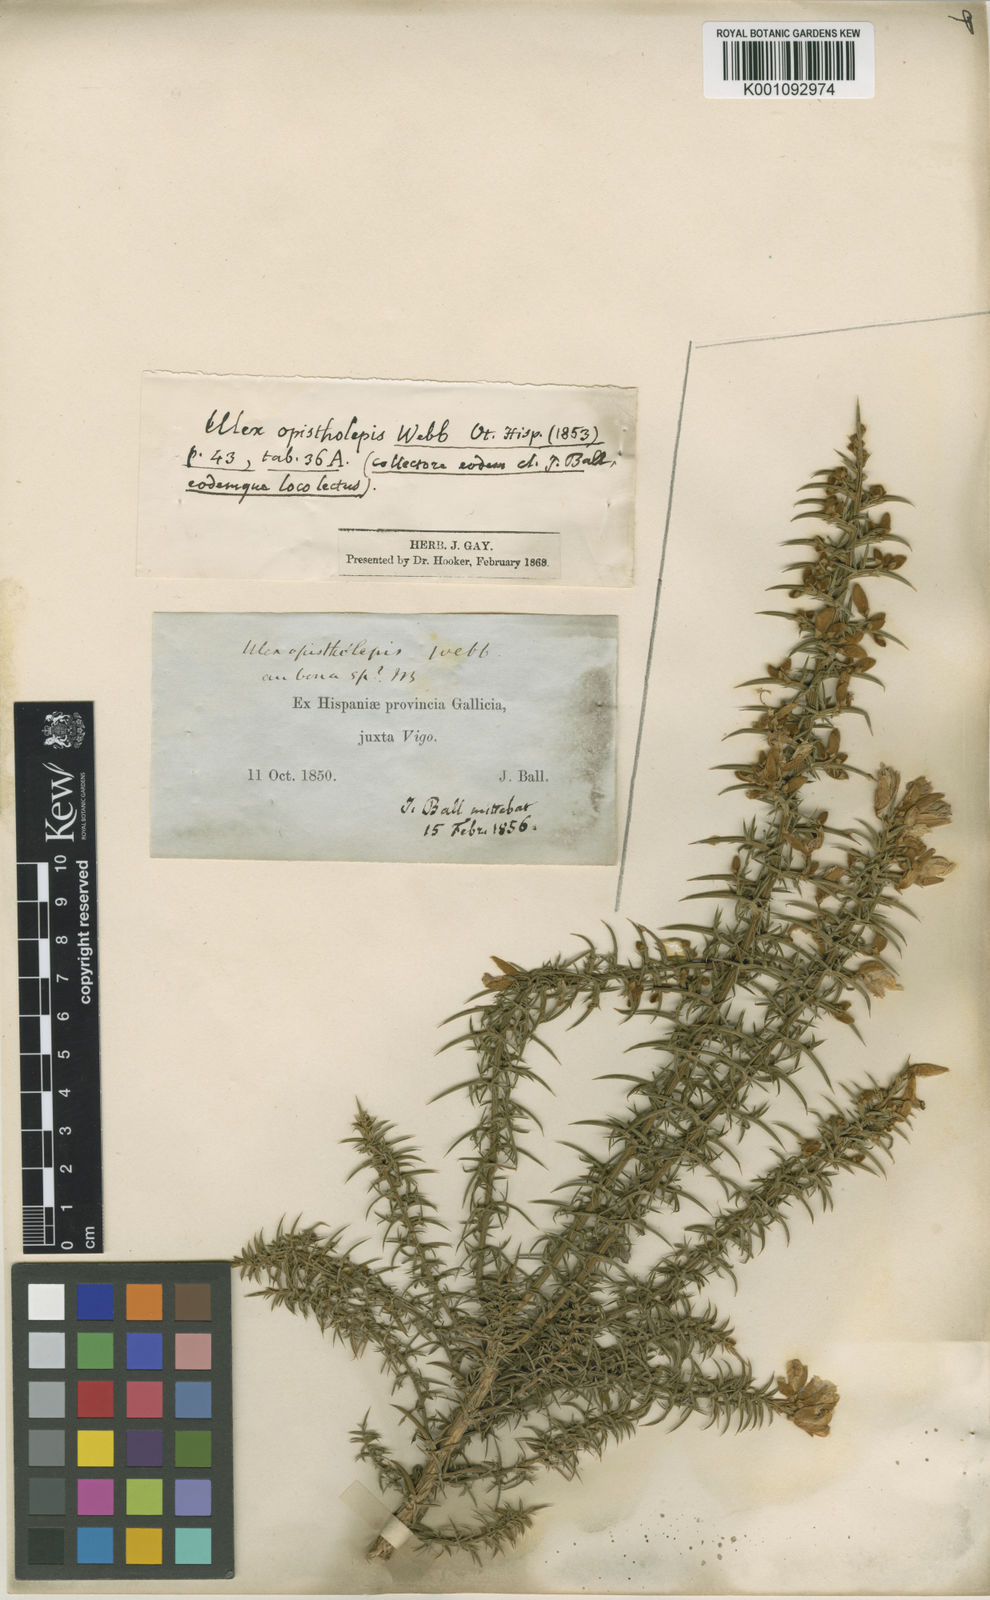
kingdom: Plantae
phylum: Tracheophyta
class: Magnoliopsida
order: Fabales
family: Fabaceae
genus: Ulex
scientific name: Ulex europaeus
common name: Common gorse
